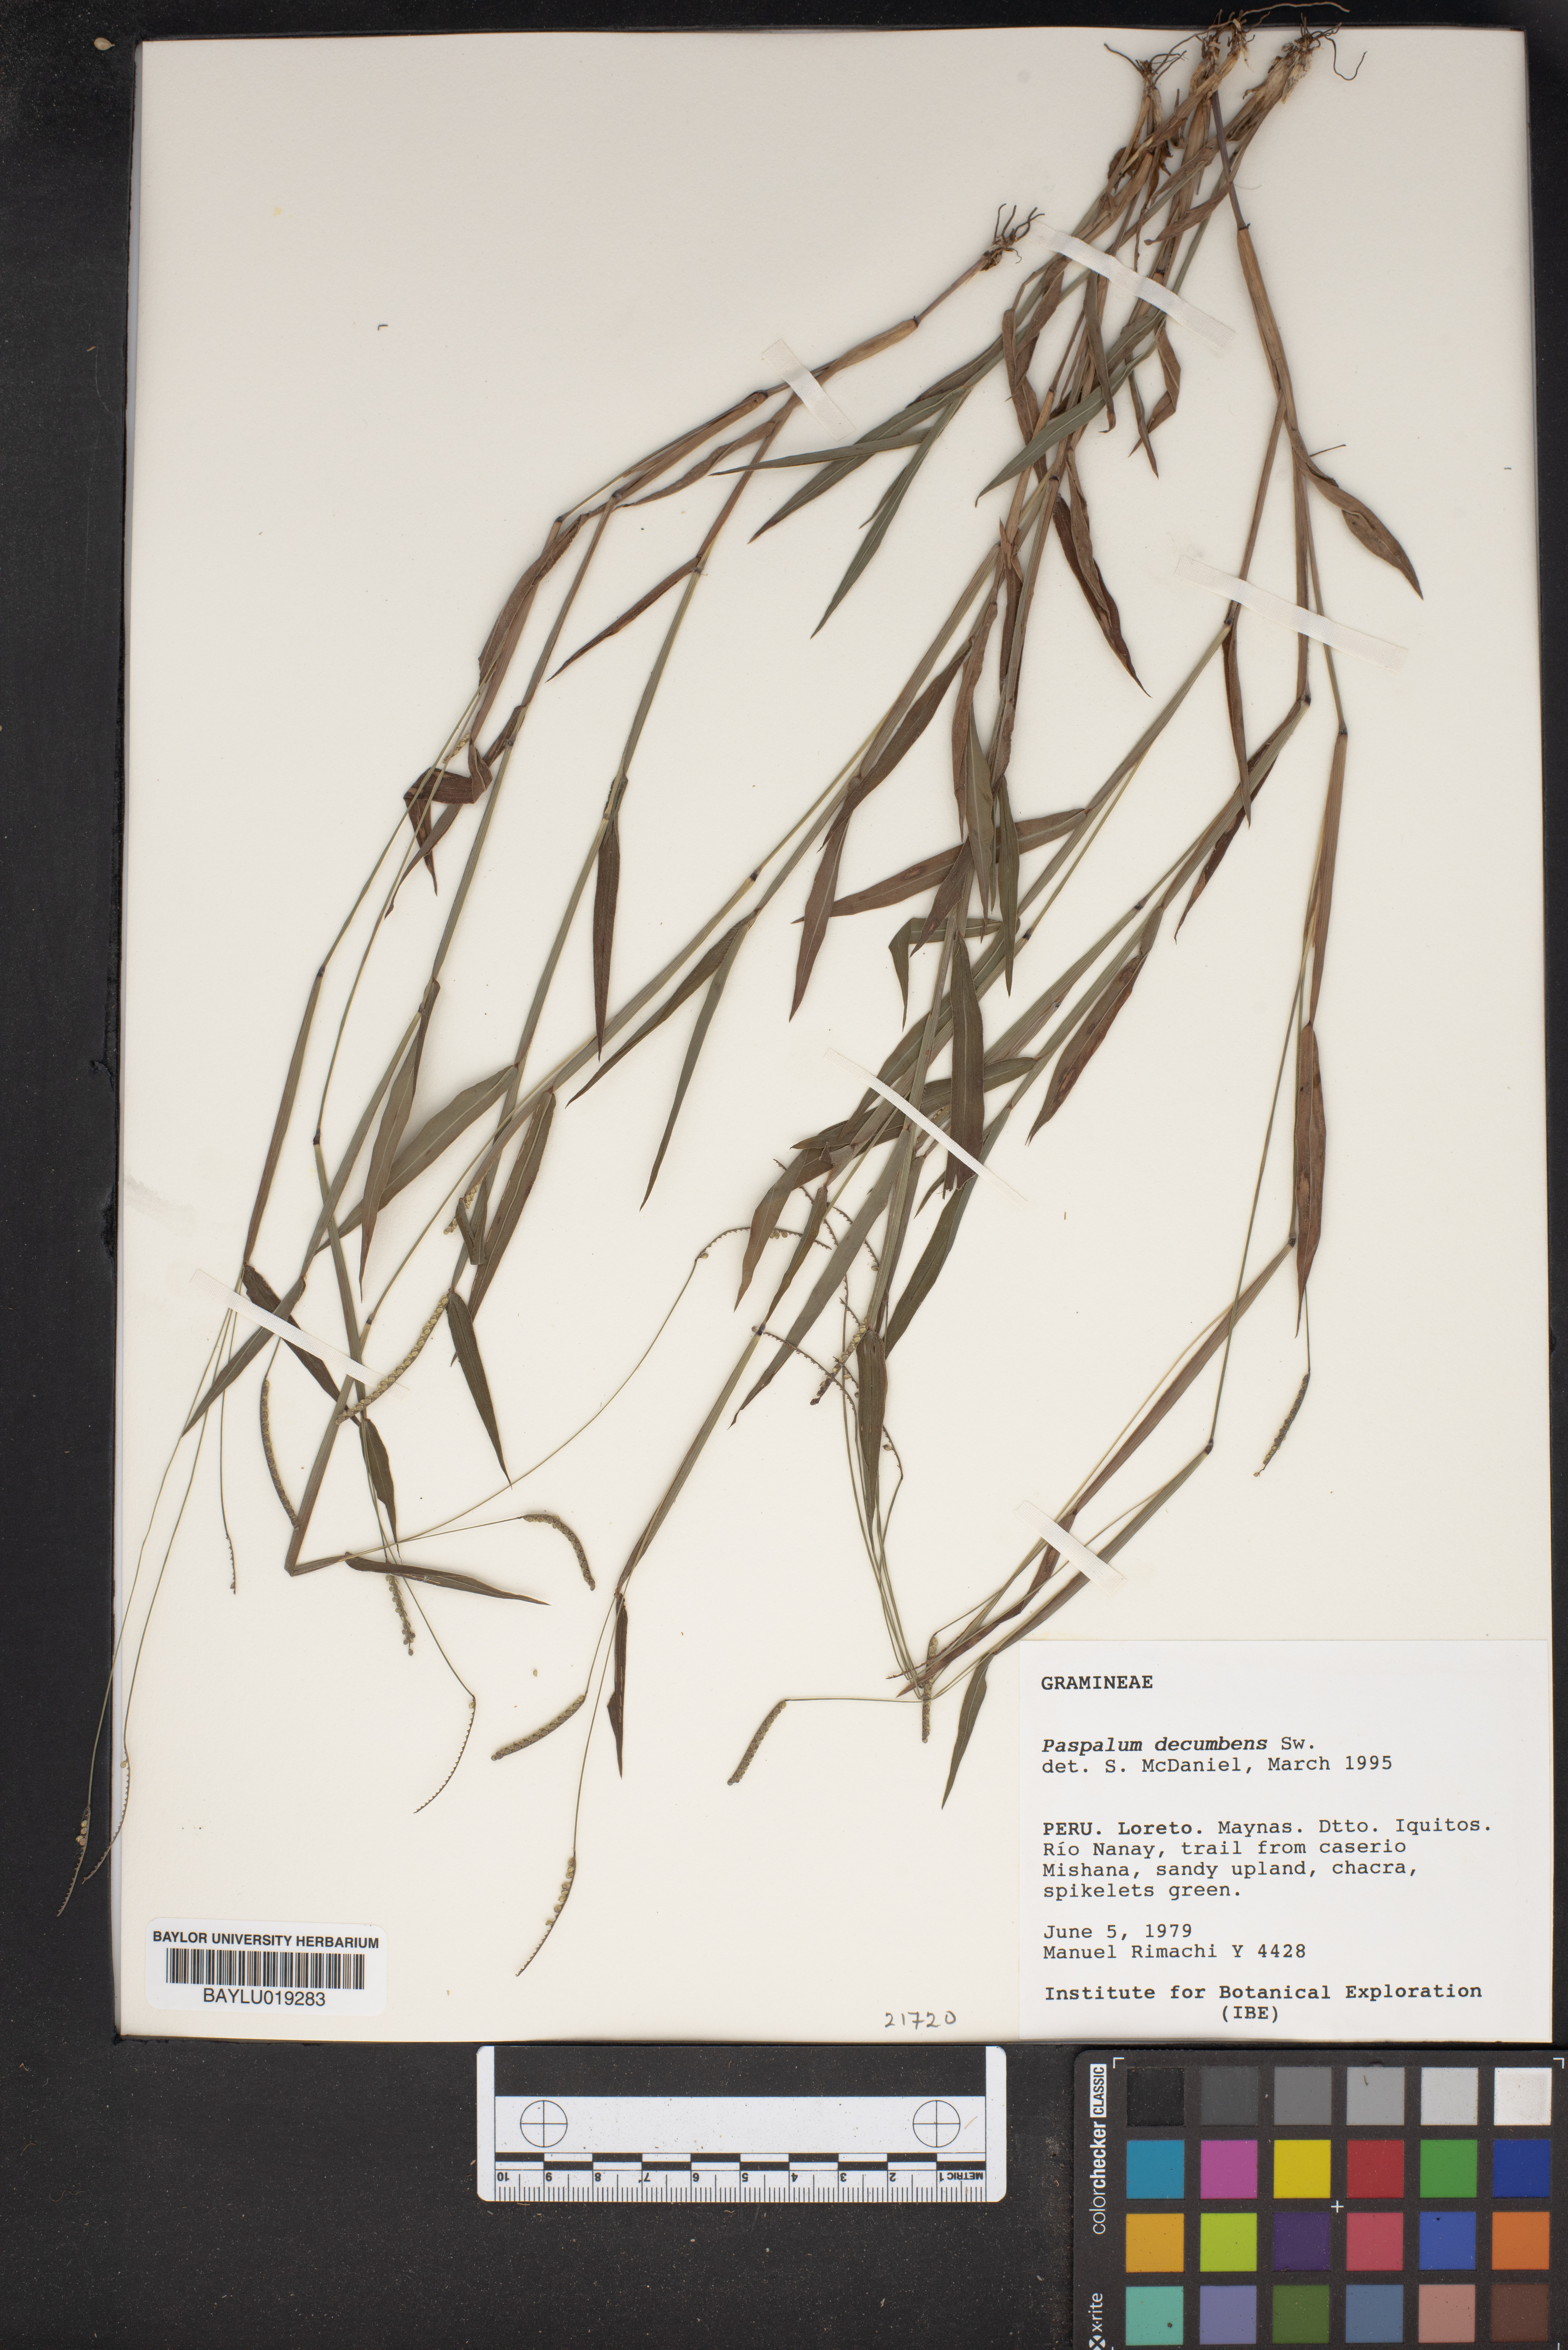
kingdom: Plantae
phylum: Tracheophyta
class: Liliopsida
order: Poales
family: Poaceae
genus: Paspalum
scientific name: Paspalum decumbens
